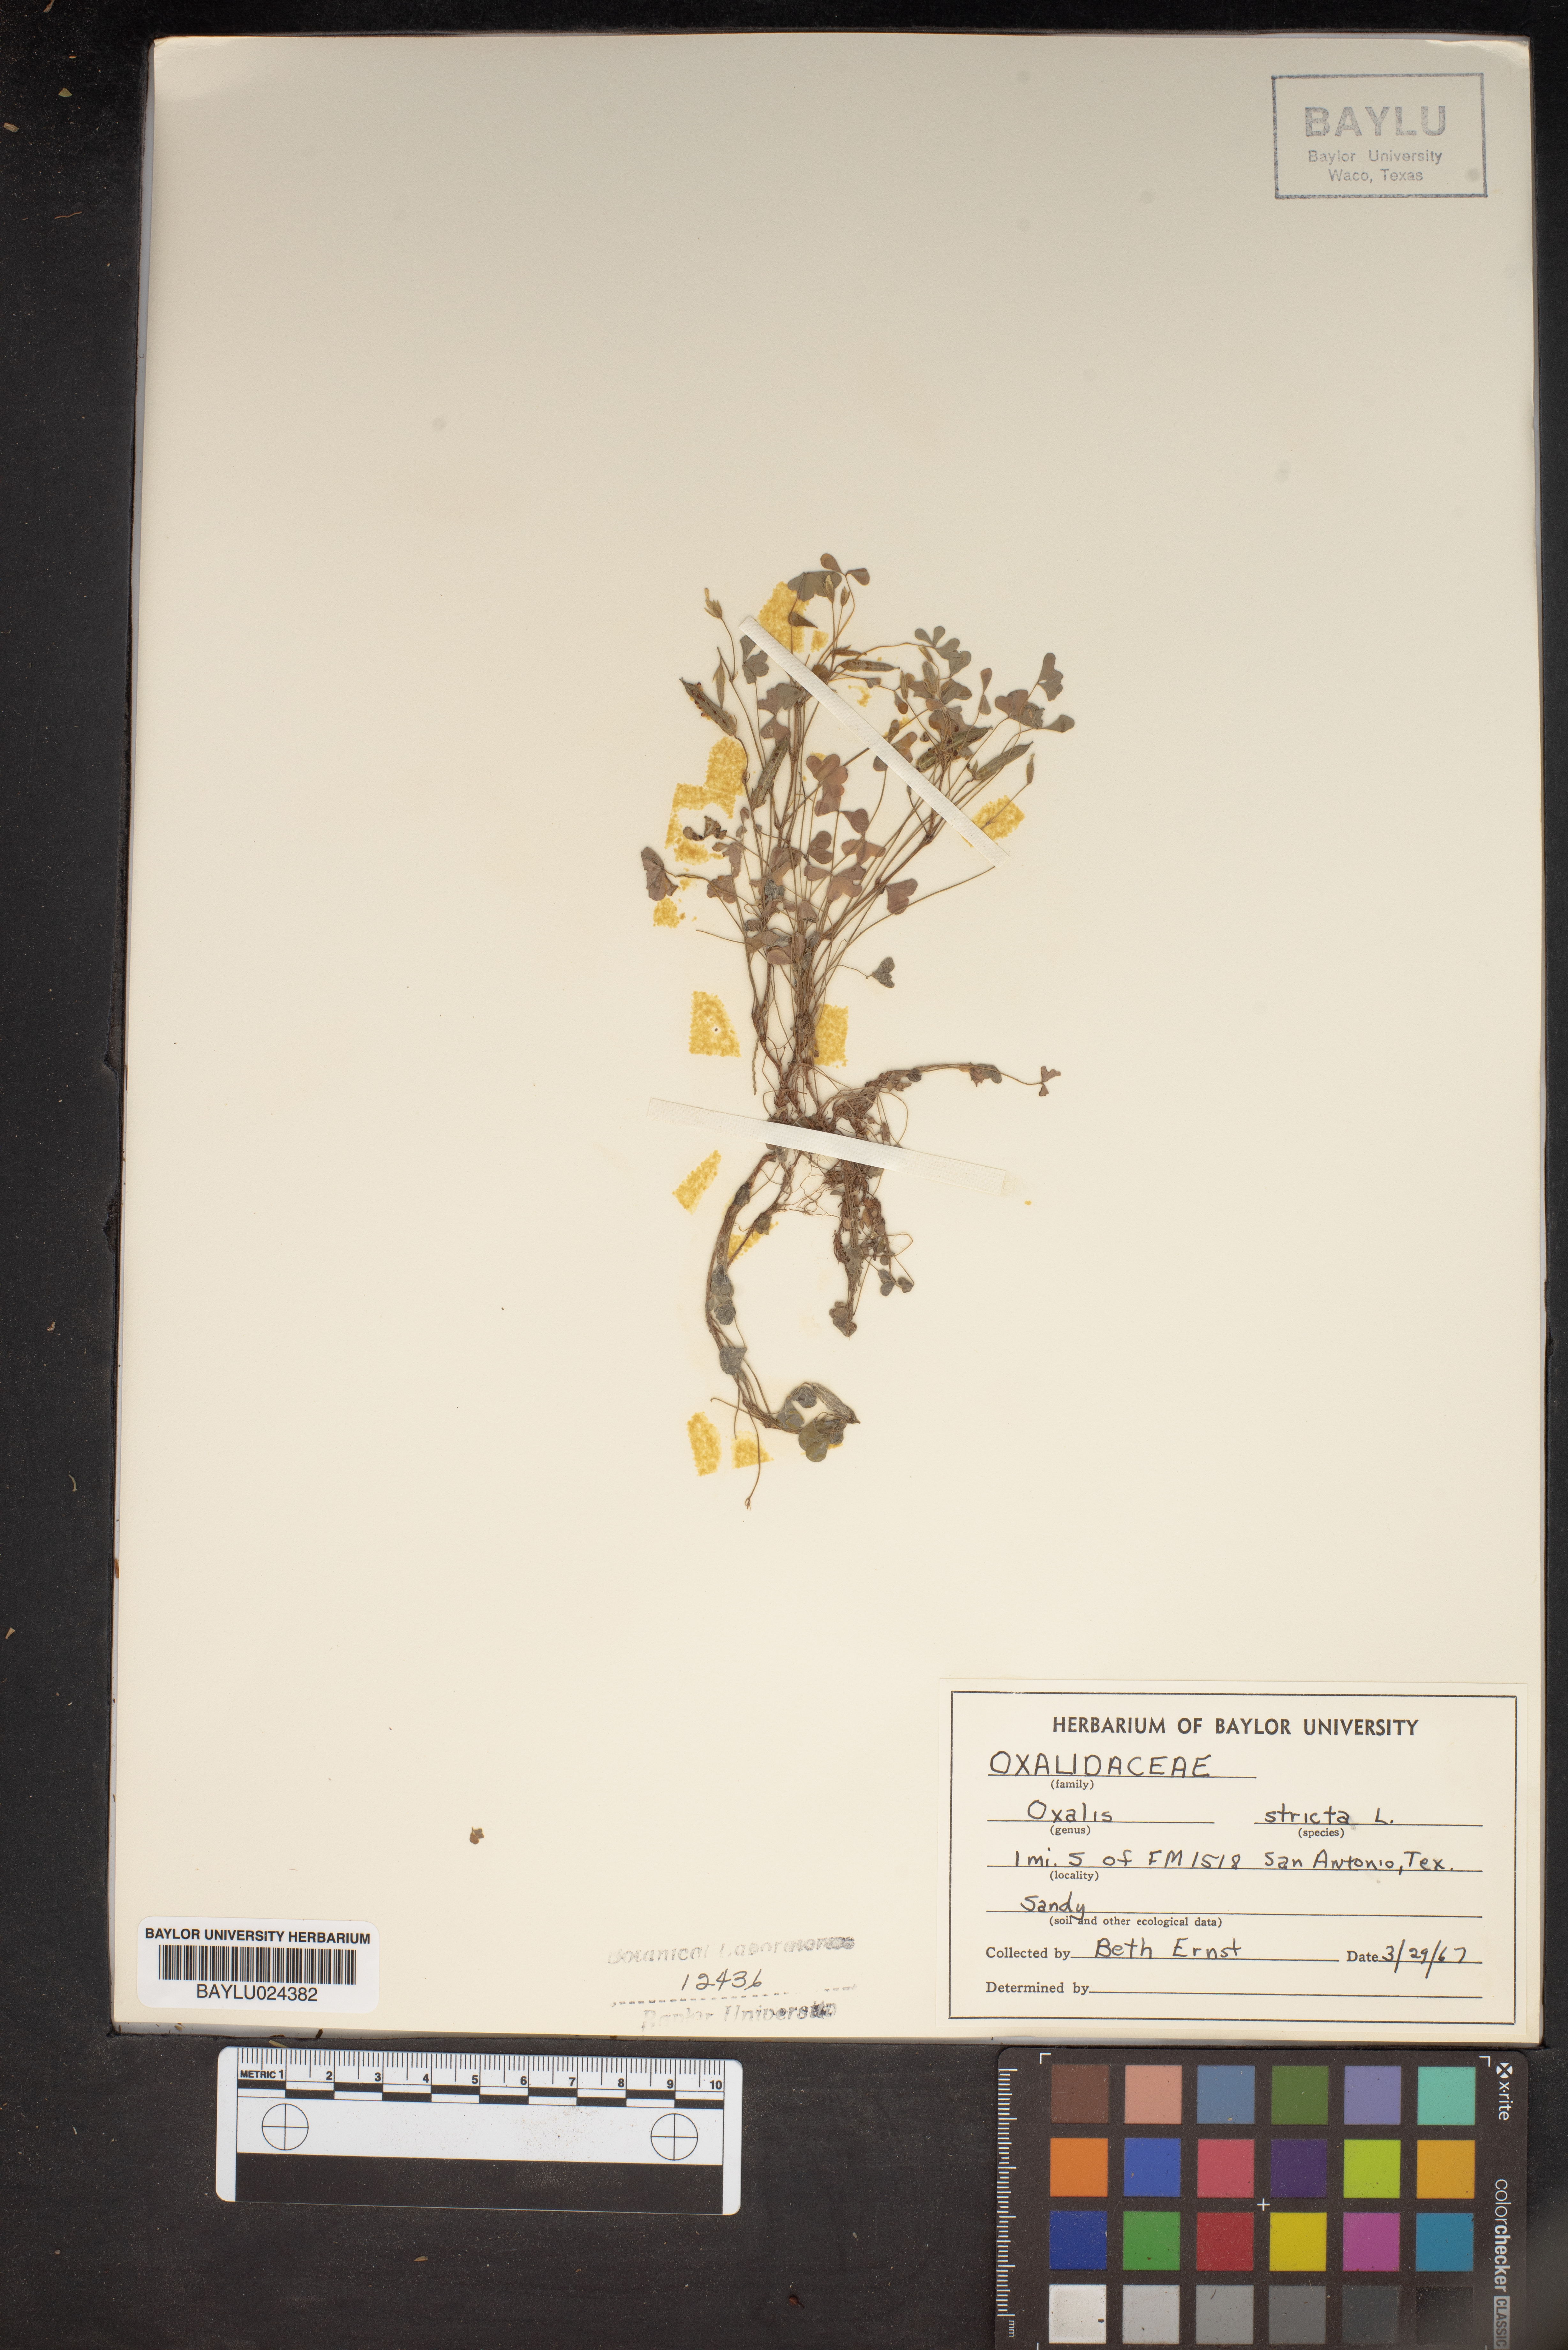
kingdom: Plantae
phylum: Tracheophyta
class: Magnoliopsida
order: Oxalidales
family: Oxalidaceae
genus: Oxalis
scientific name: Oxalis stricta
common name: Upright yellow-sorrel
